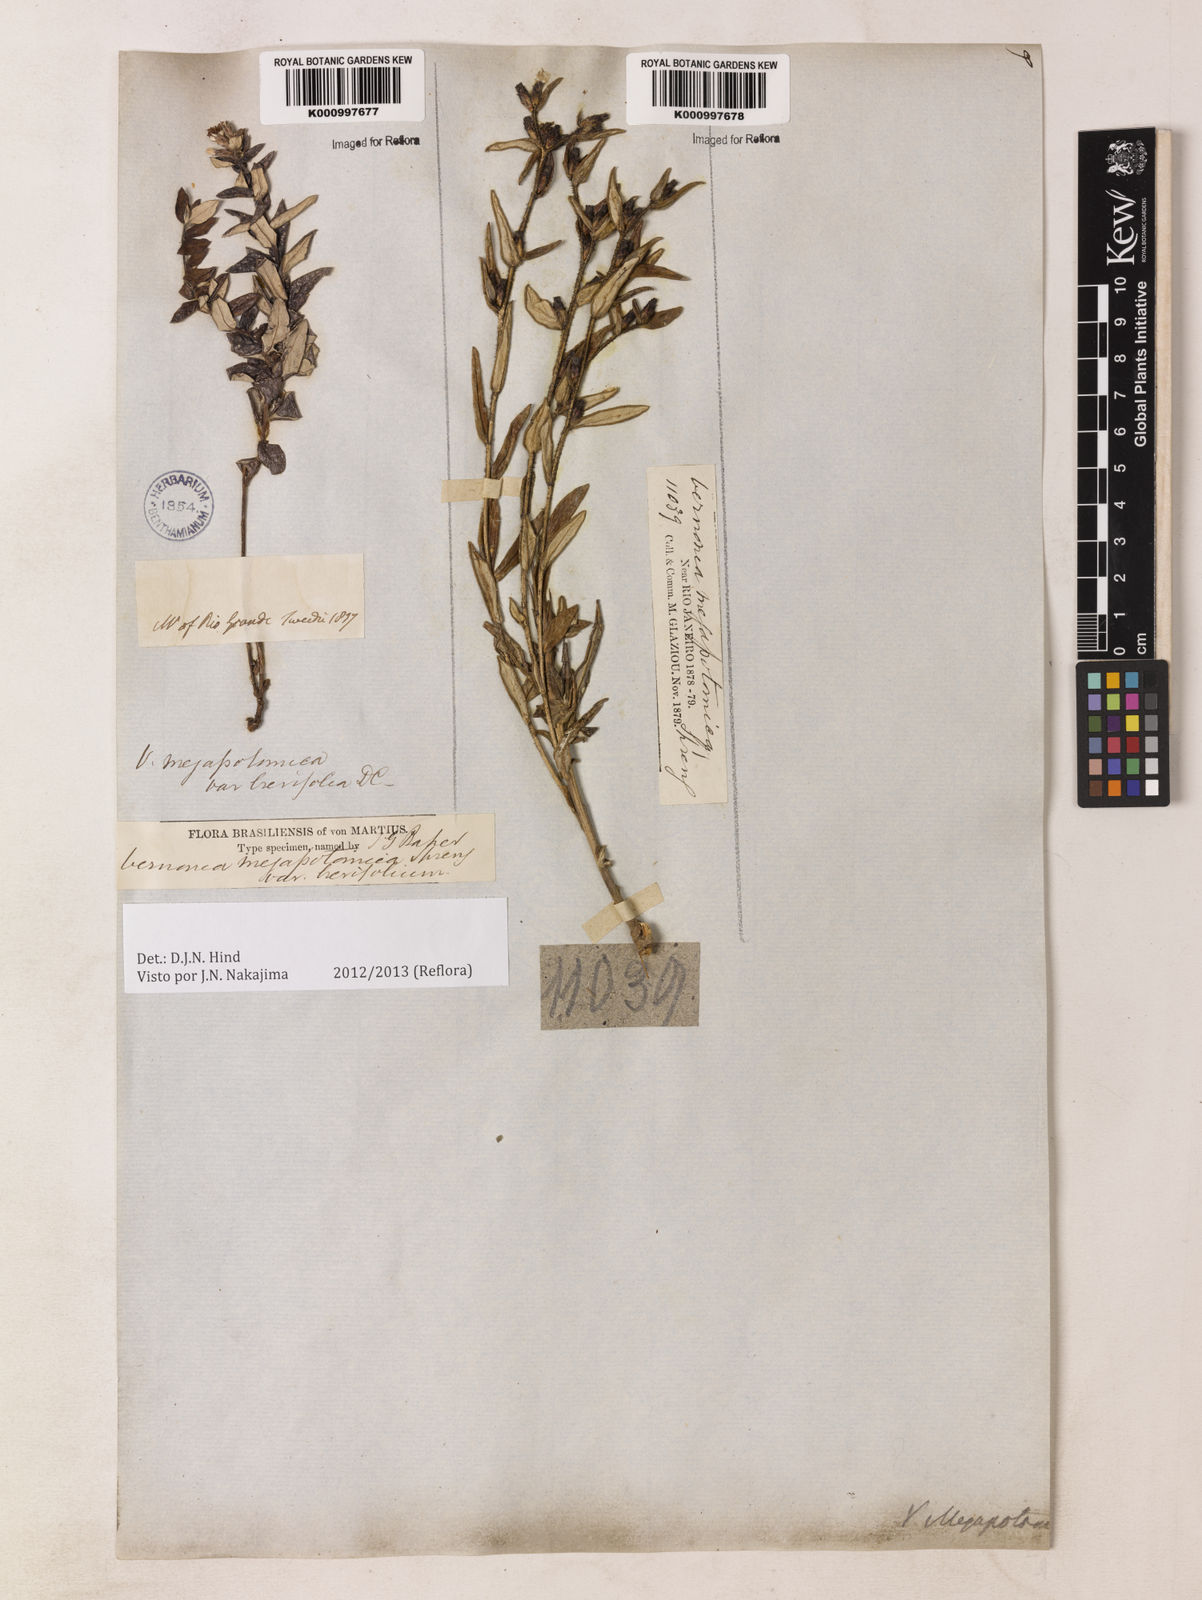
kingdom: Plantae
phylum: Tracheophyta
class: Magnoliopsida
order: Asterales
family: Asteraceae
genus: Stenocephalum
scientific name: Stenocephalum megapotamicum
